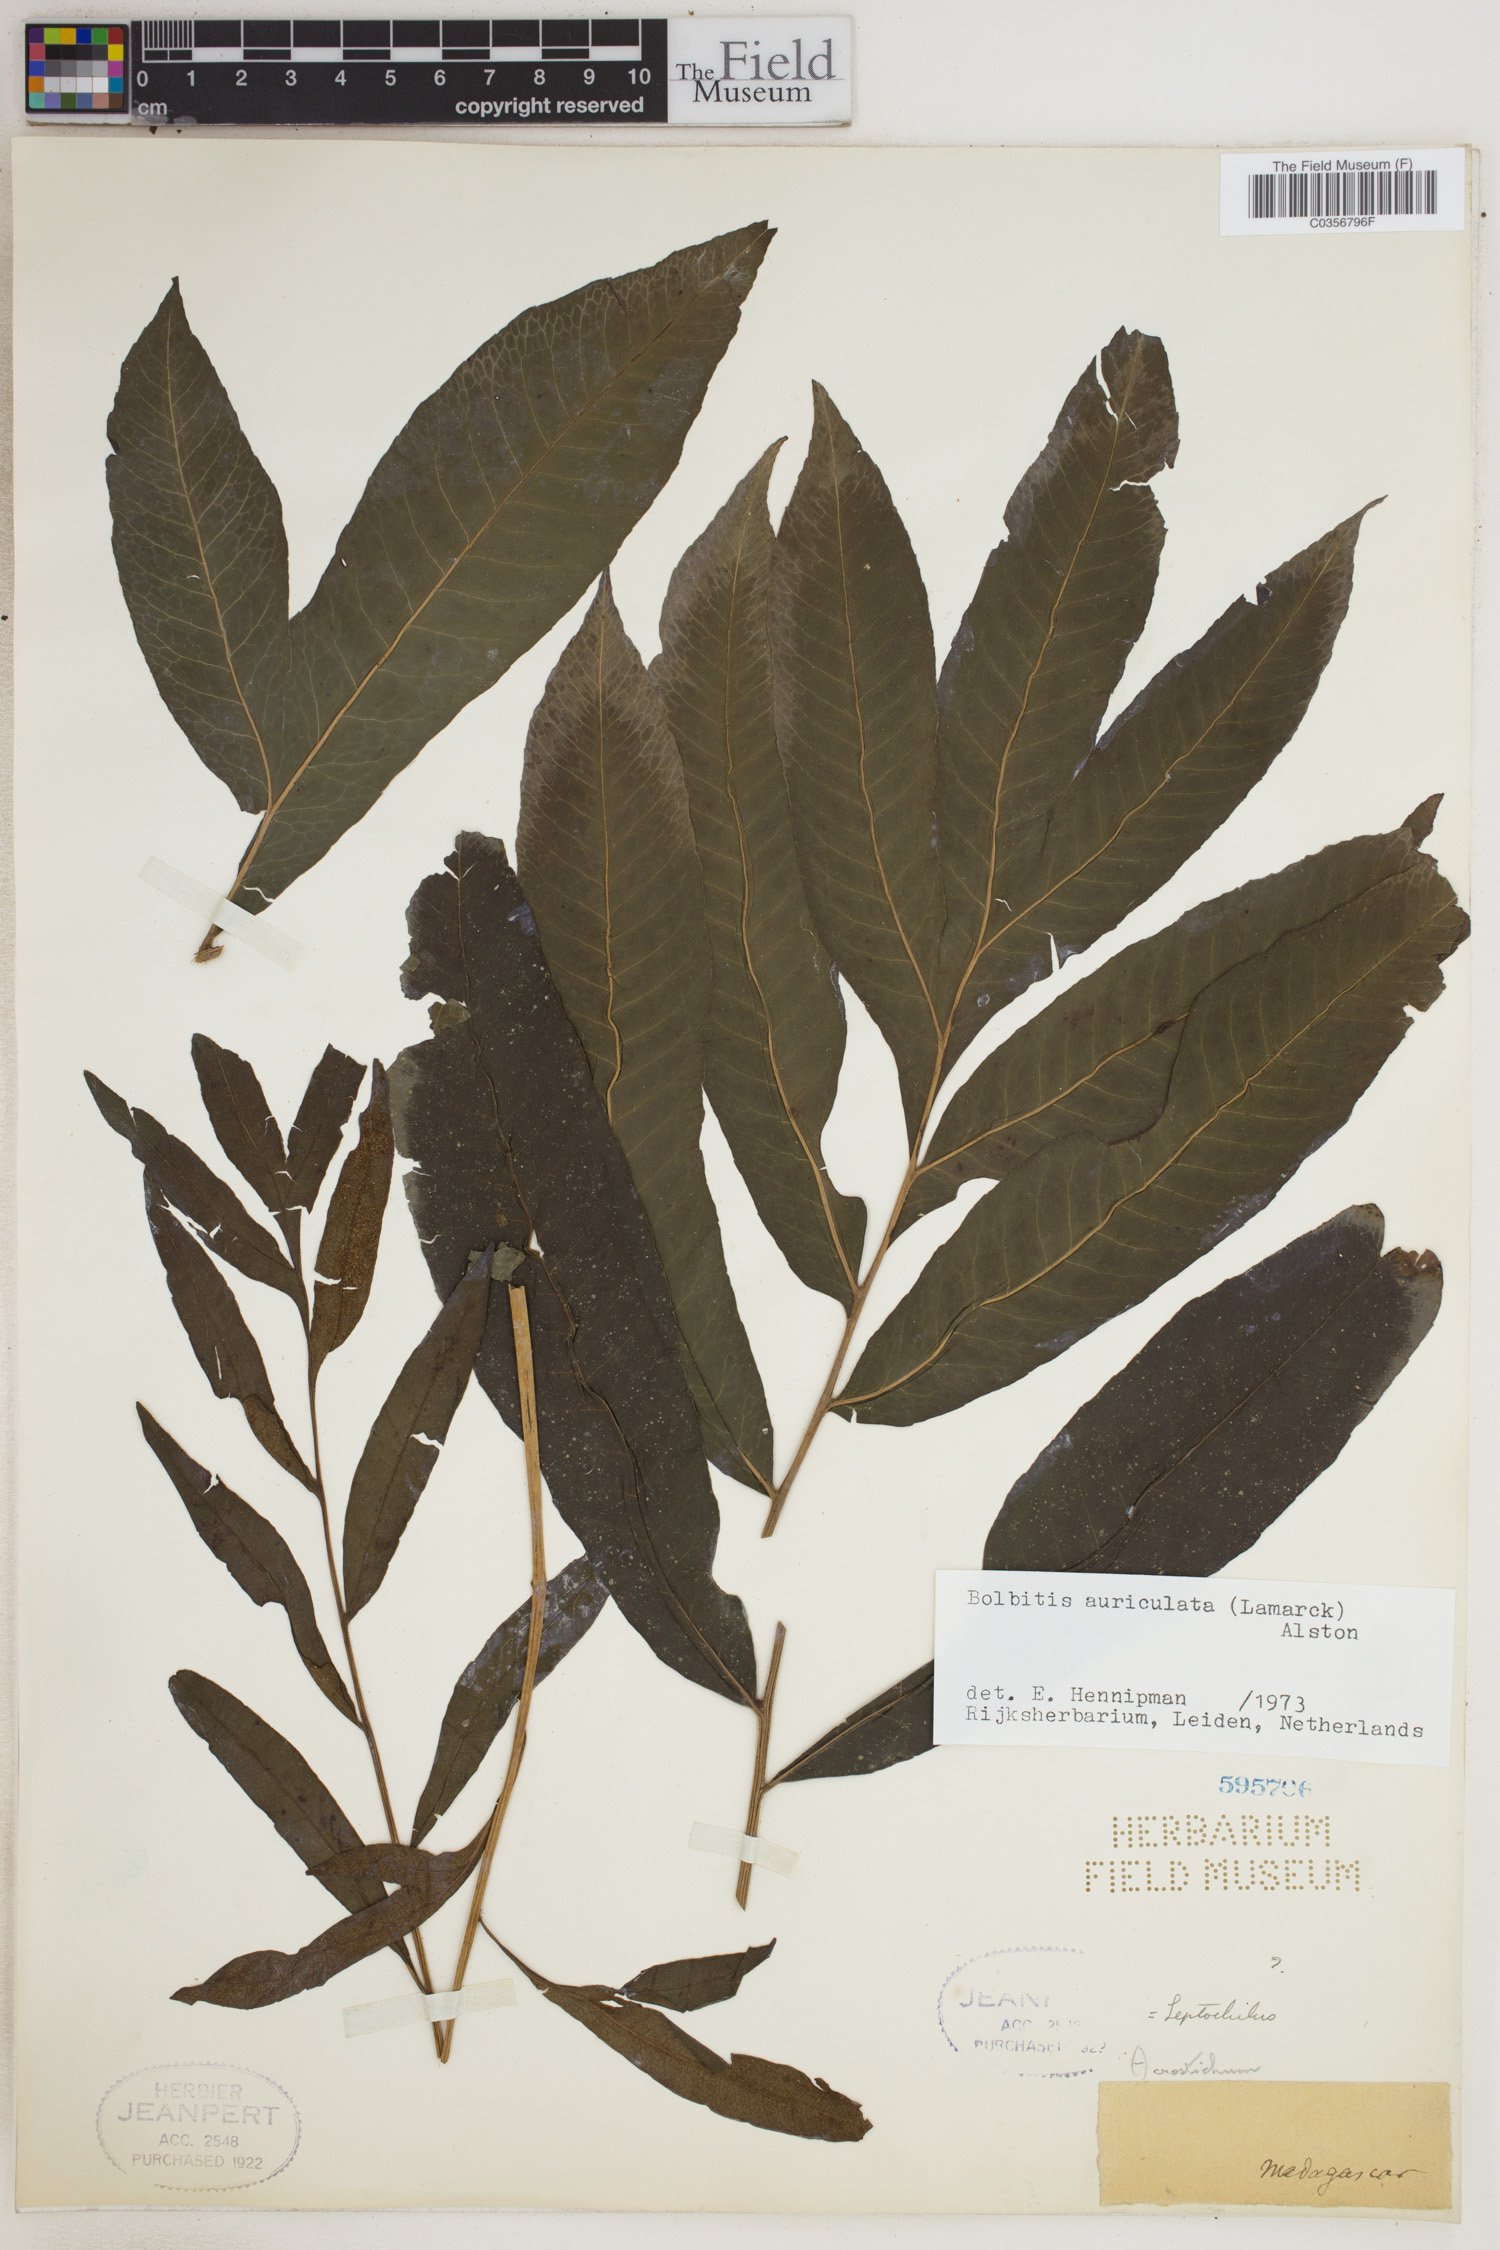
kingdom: Plantae
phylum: Tracheophyta
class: Polypodiopsida
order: Polypodiales
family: Dryopteridaceae
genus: Bolbitis
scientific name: Bolbitis auriculata
